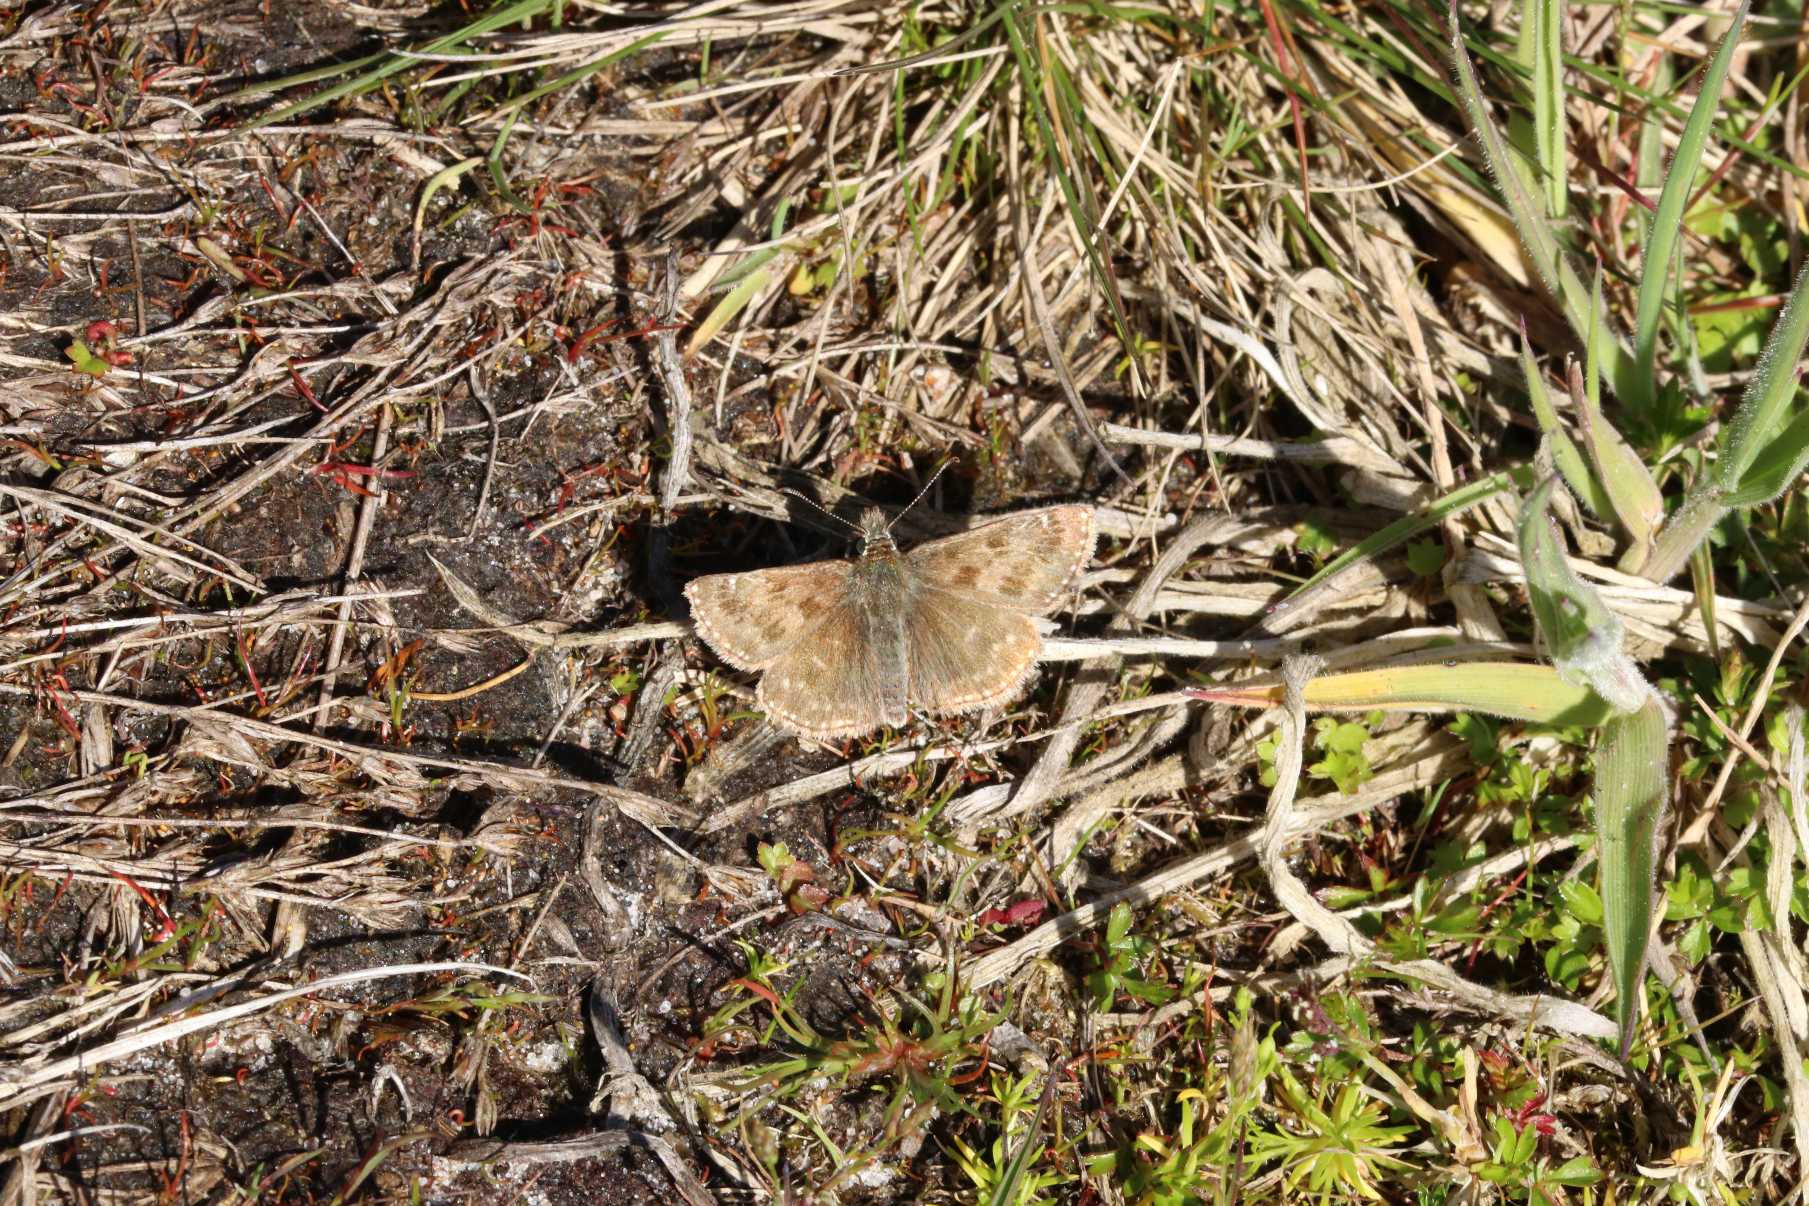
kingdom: Animalia
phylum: Arthropoda
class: Insecta
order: Lepidoptera
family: Hesperiidae
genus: Erynnis
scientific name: Erynnis tages
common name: Gråbåndet bredpande
